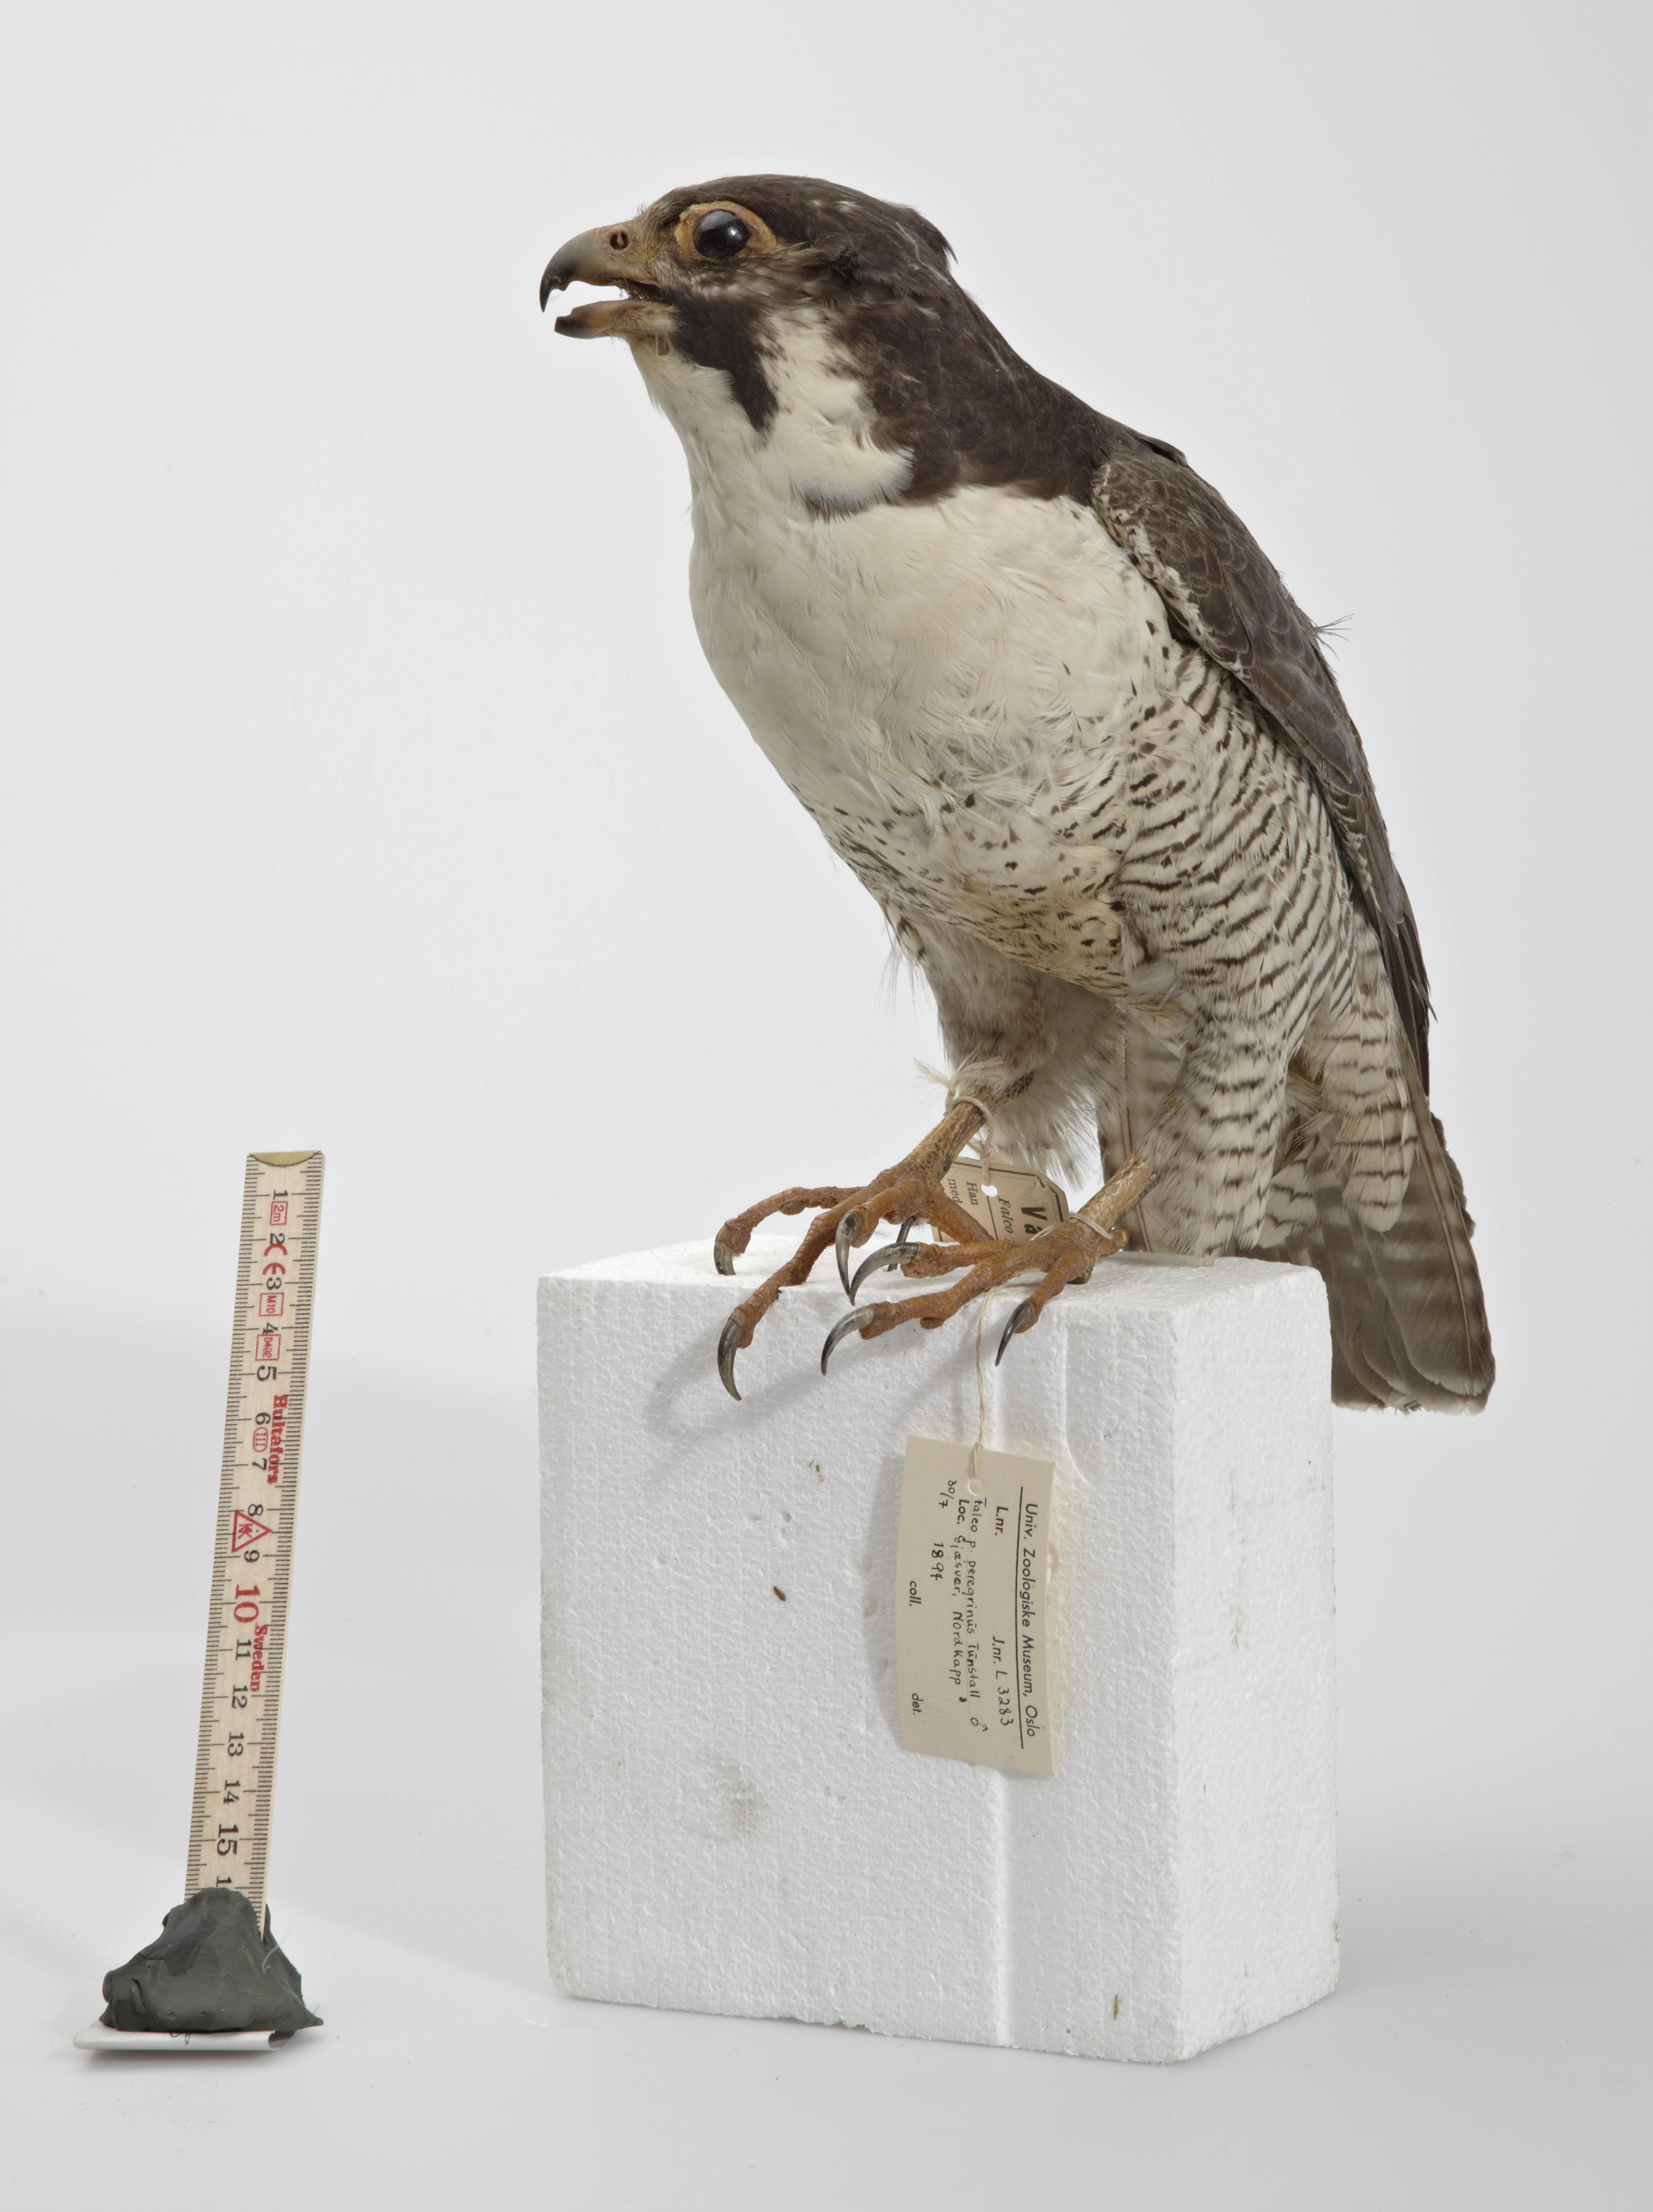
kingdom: Animalia
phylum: Chordata
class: Aves
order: Falconiformes
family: Falconidae
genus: Falco
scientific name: Falco peregrinus
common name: Peregrine falcon
